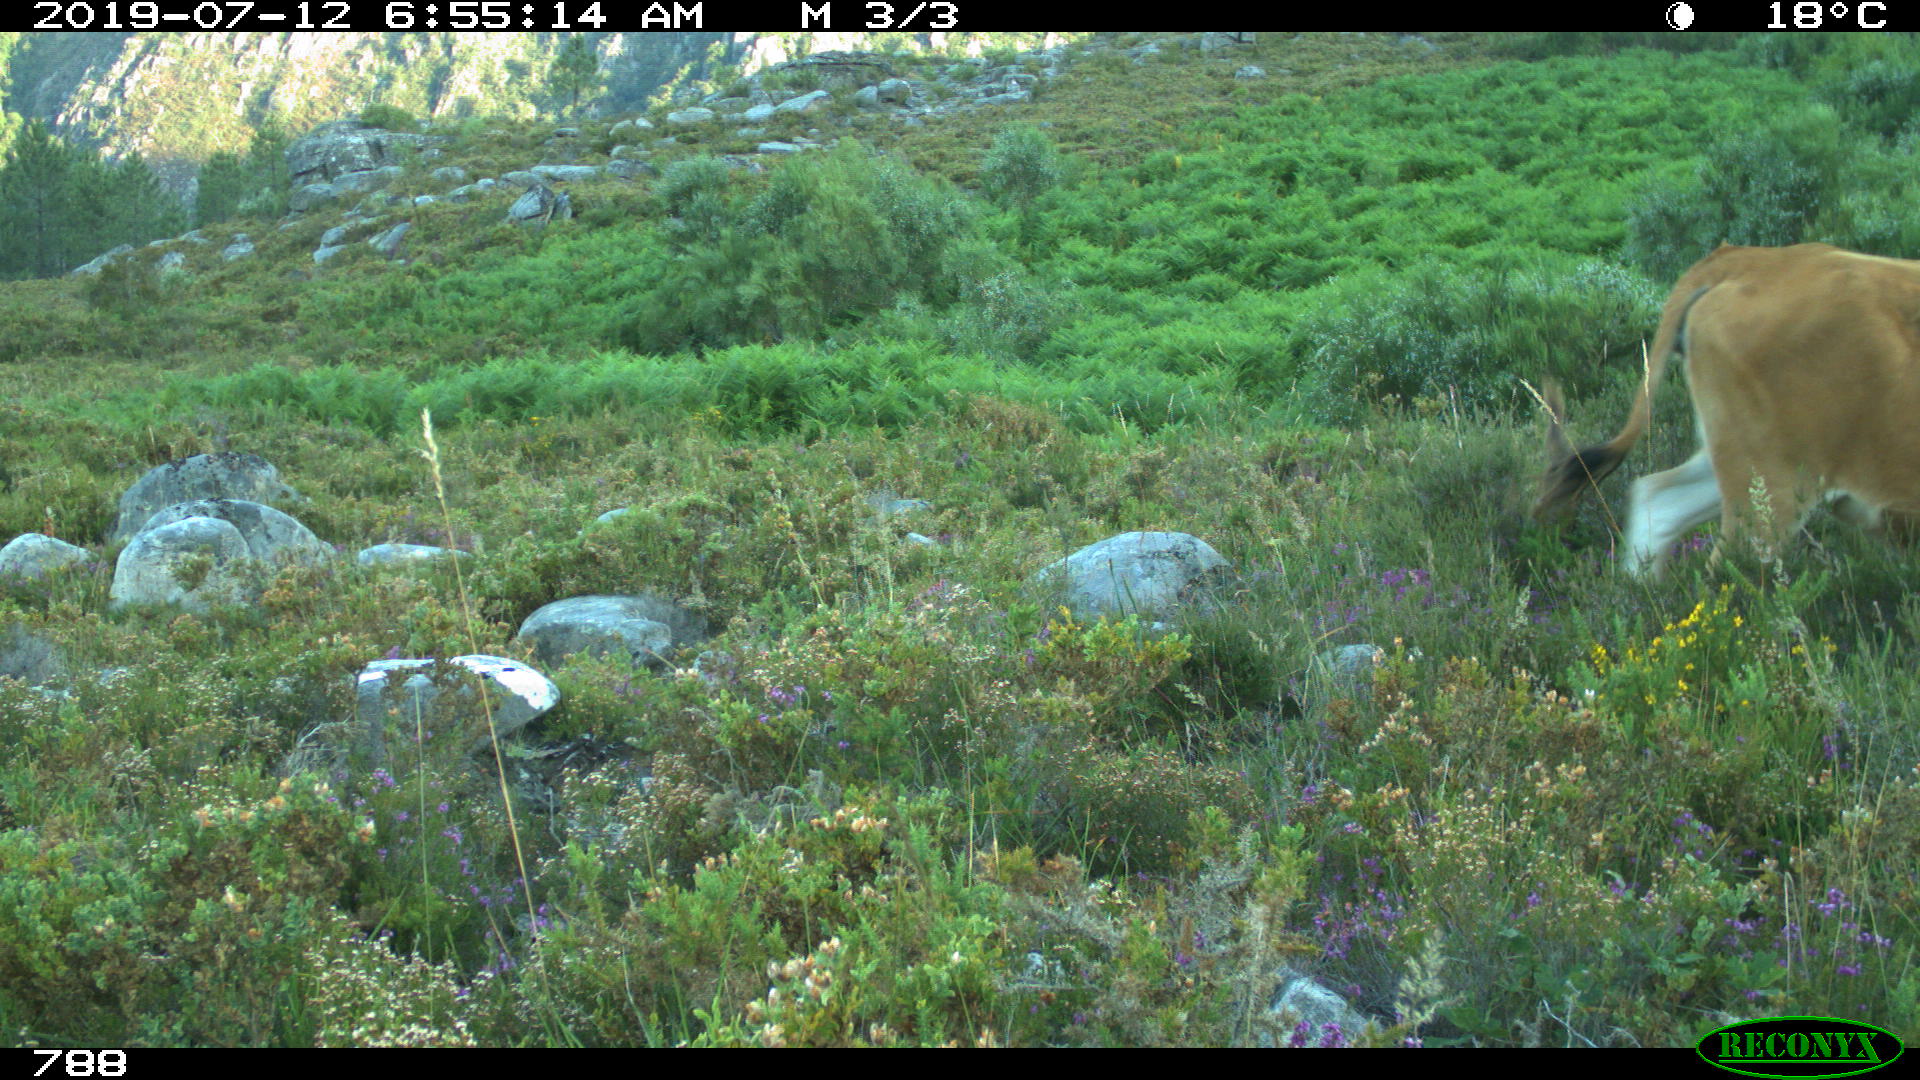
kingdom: Animalia
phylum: Chordata
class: Mammalia
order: Artiodactyla
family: Bovidae
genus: Bos
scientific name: Bos taurus
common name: Domesticated cattle
